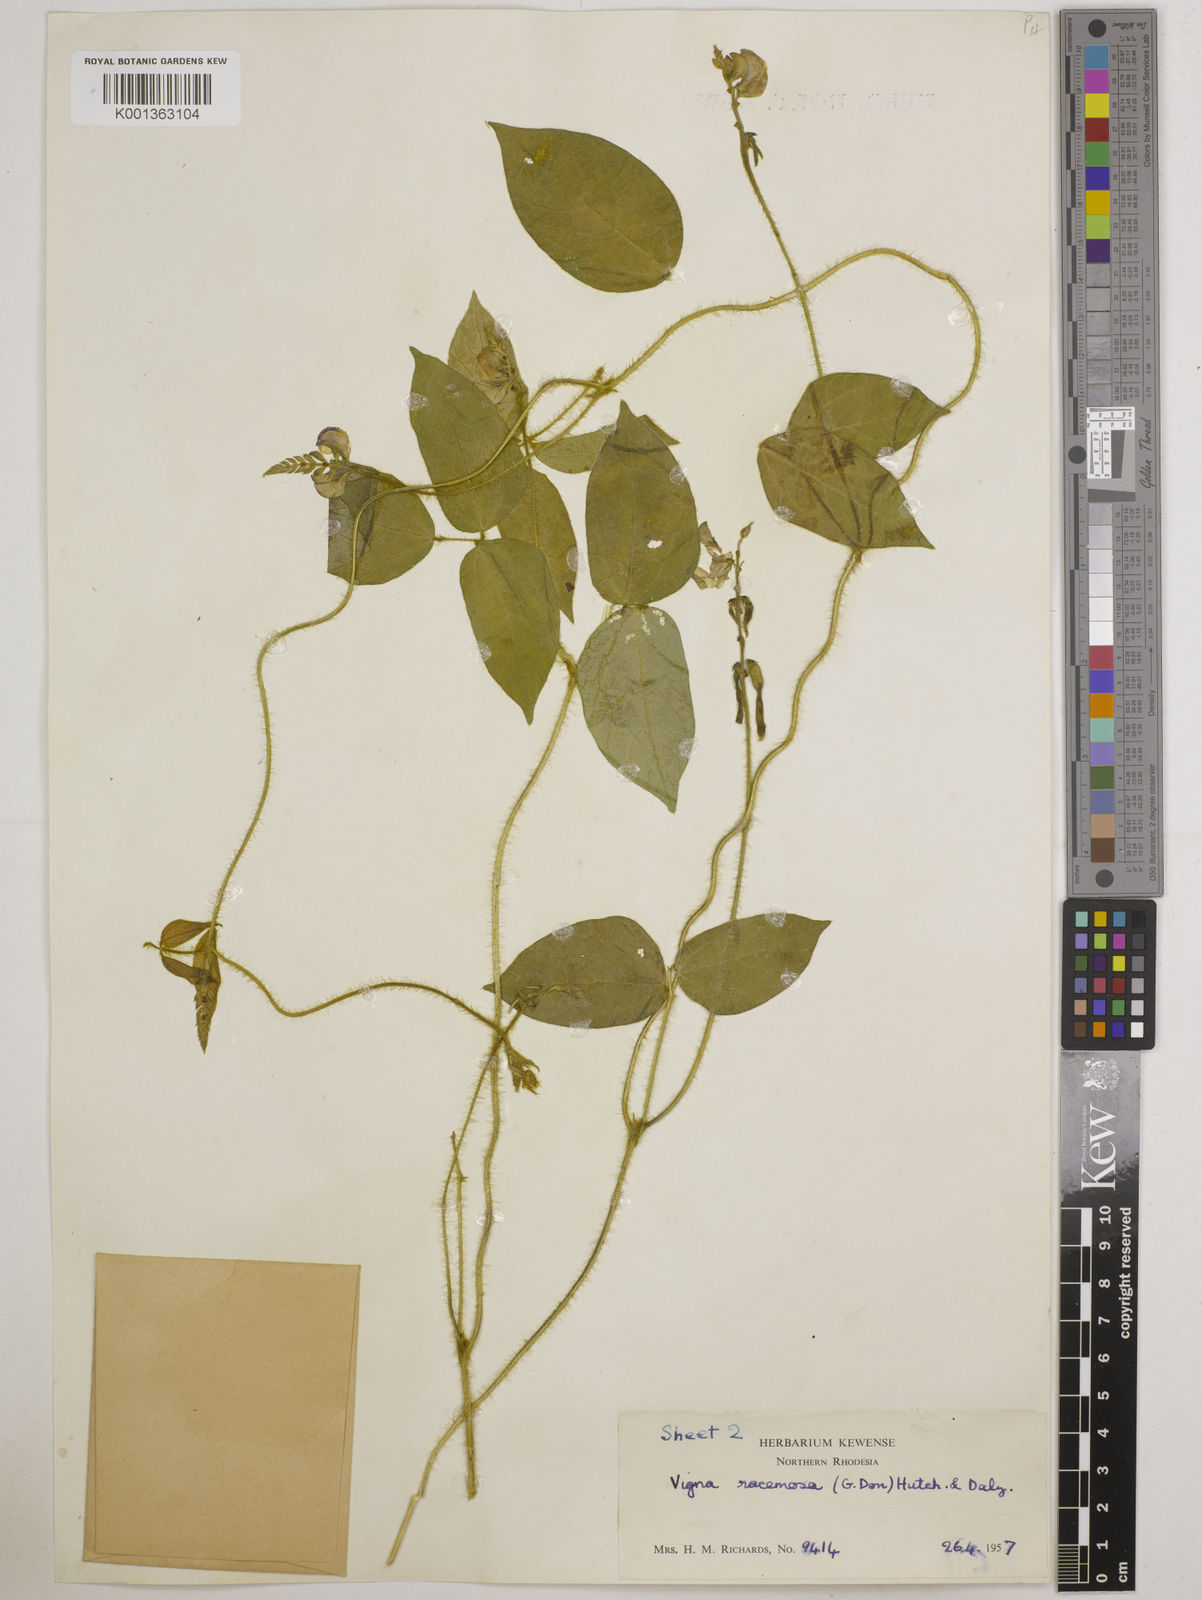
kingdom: Plantae
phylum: Tracheophyta
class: Magnoliopsida
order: Fabales
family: Fabaceae
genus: Vigna
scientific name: Vigna racemosa
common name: Beans not eaten
